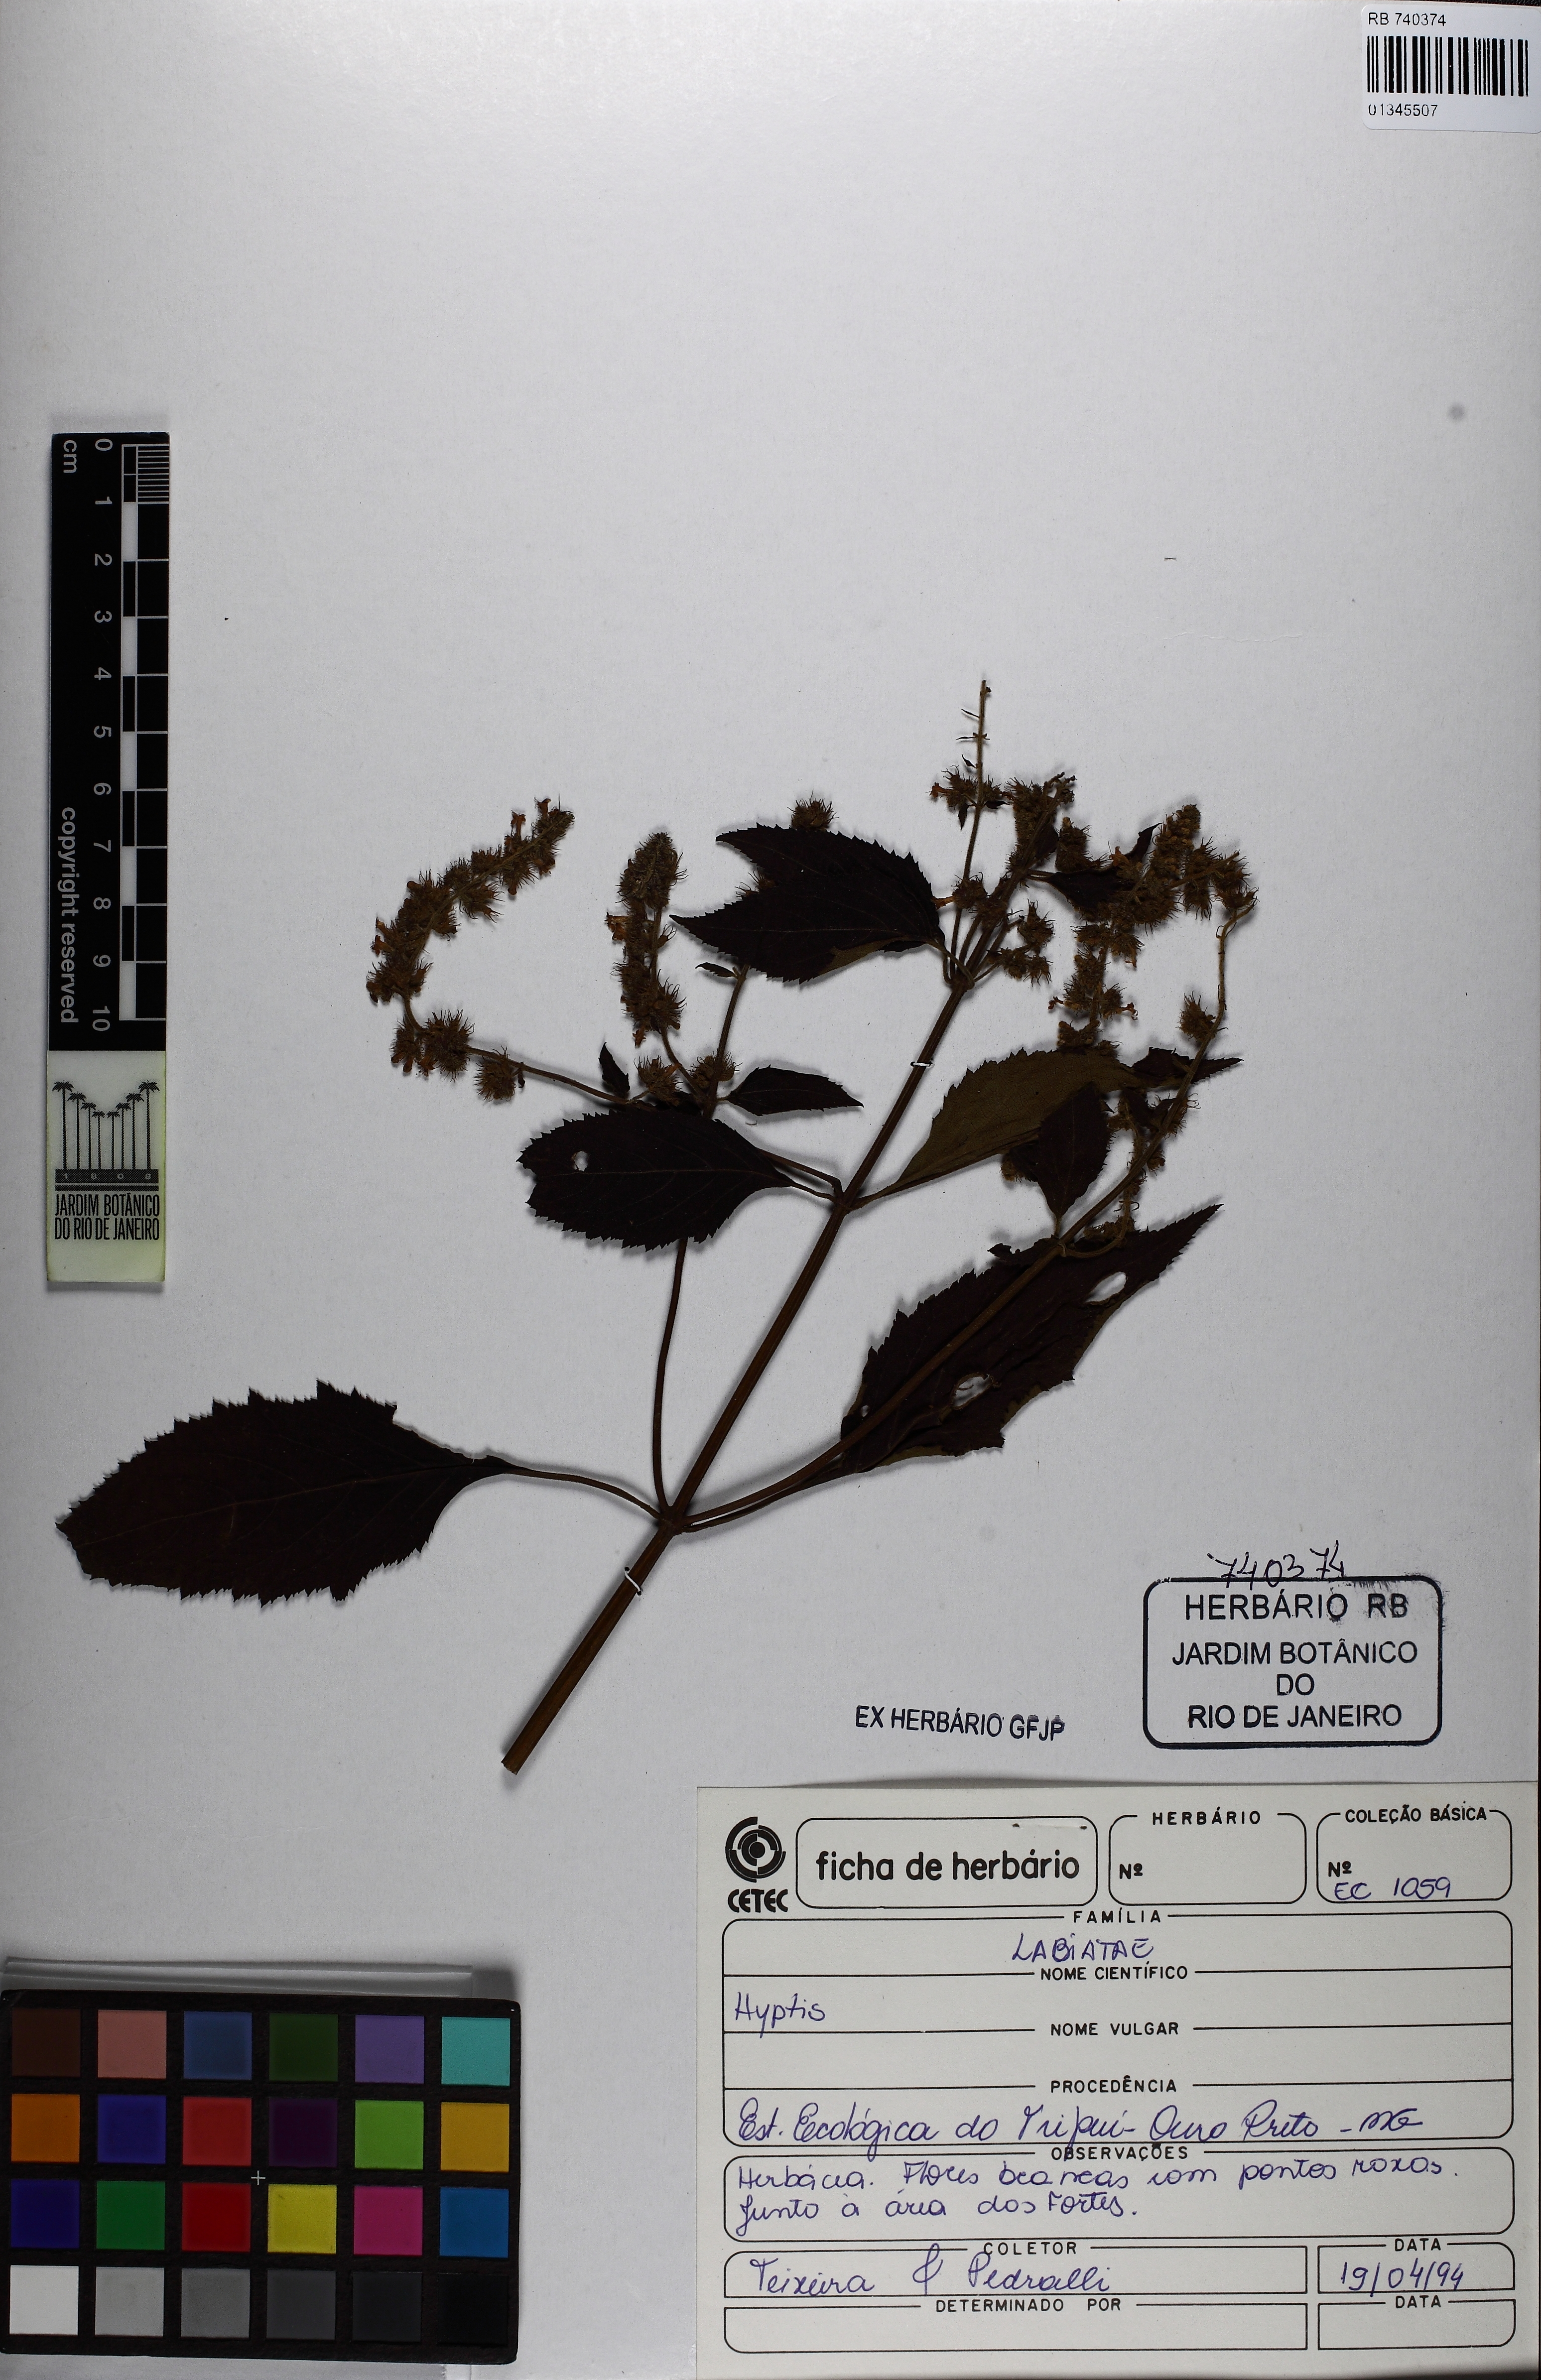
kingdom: Plantae
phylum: Tracheophyta
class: Magnoliopsida
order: Lamiales
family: Lamiaceae
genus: Cantinoa
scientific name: Cantinoa
